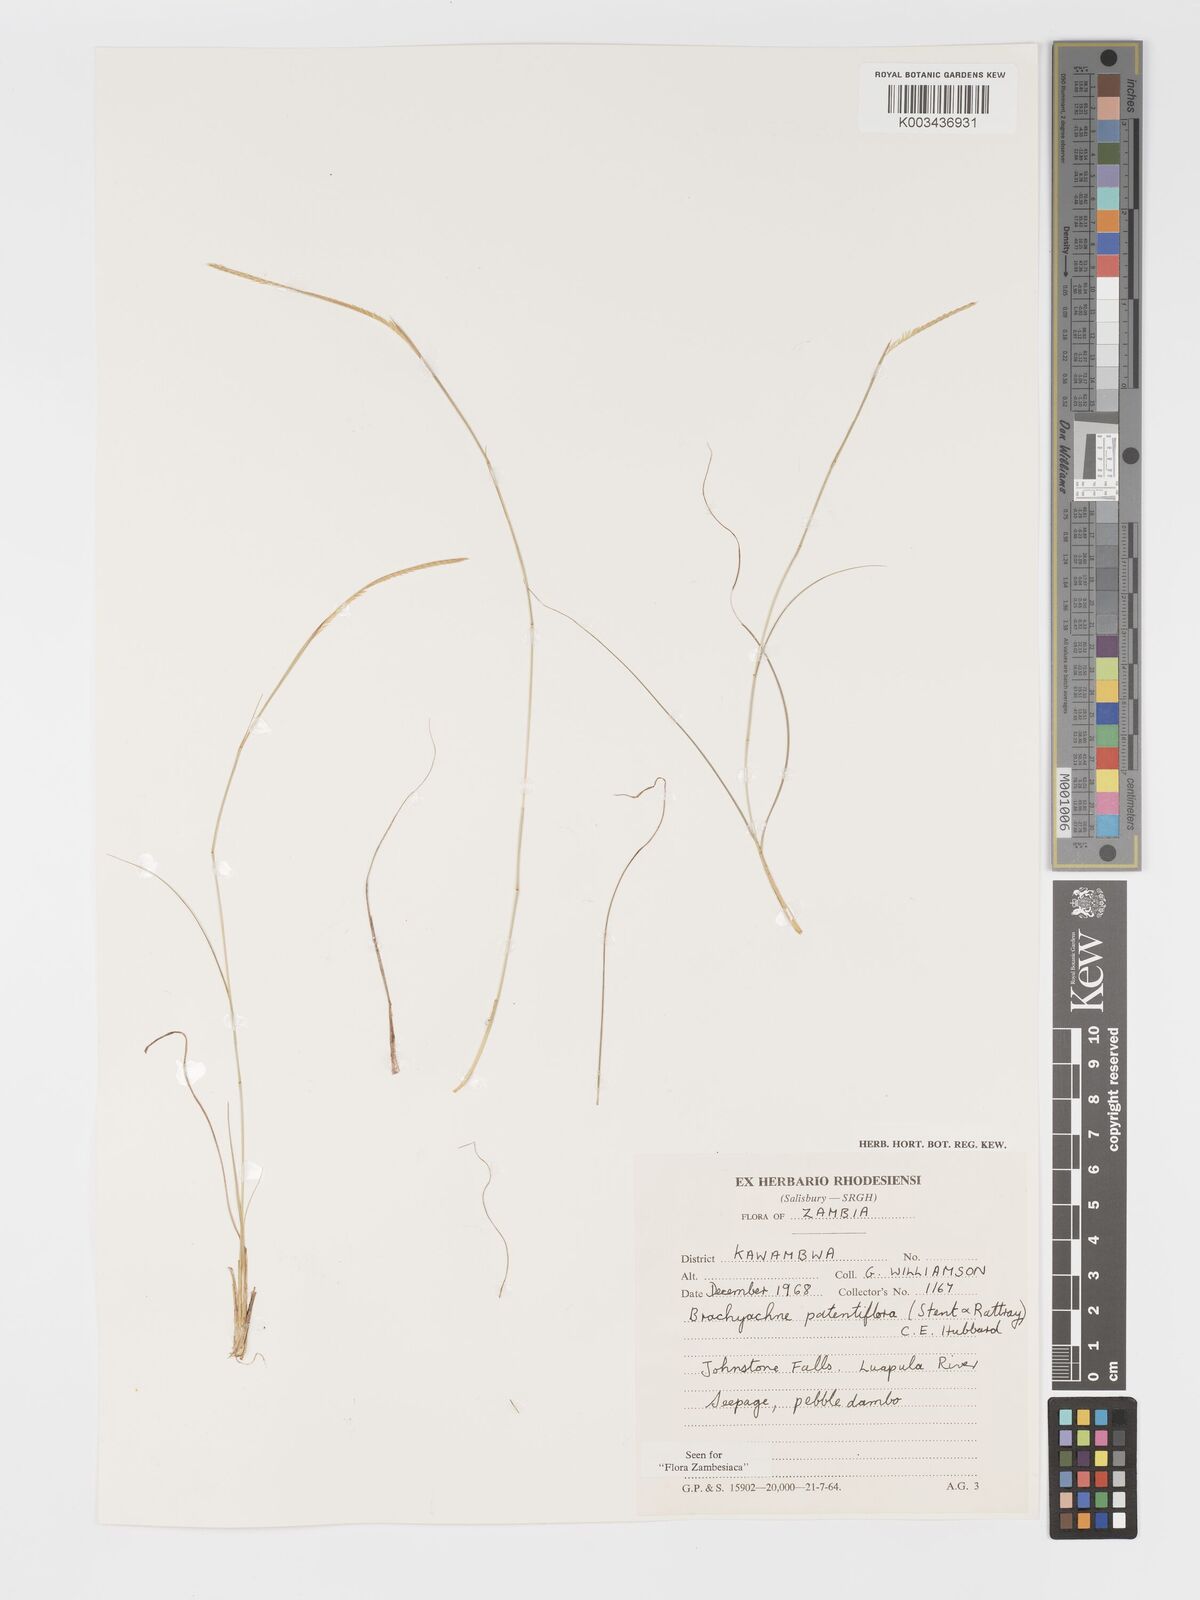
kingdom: Plantae
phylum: Tracheophyta
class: Liliopsida
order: Poales
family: Poaceae
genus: Micrachne
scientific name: Micrachne patentiflora
